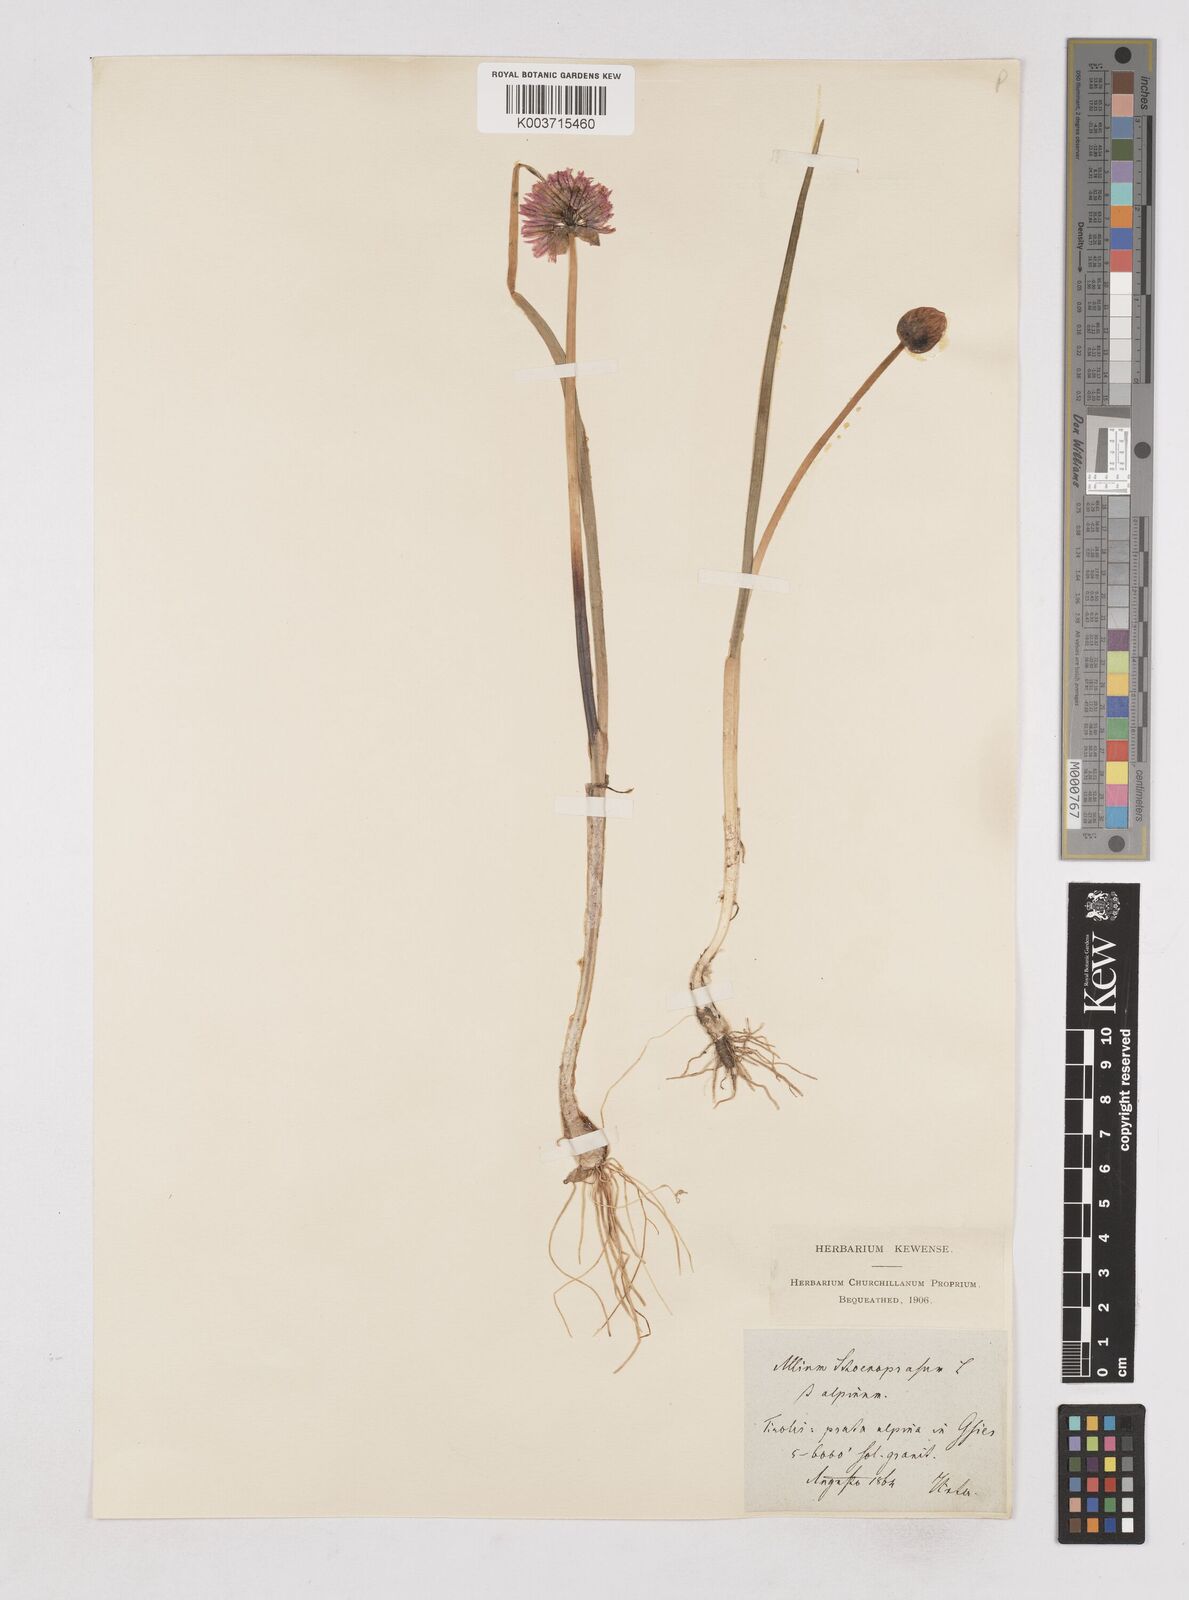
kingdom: Plantae
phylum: Tracheophyta
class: Liliopsida
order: Asparagales
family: Amaryllidaceae
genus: Allium
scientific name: Allium schoenoprasum
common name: Chives
